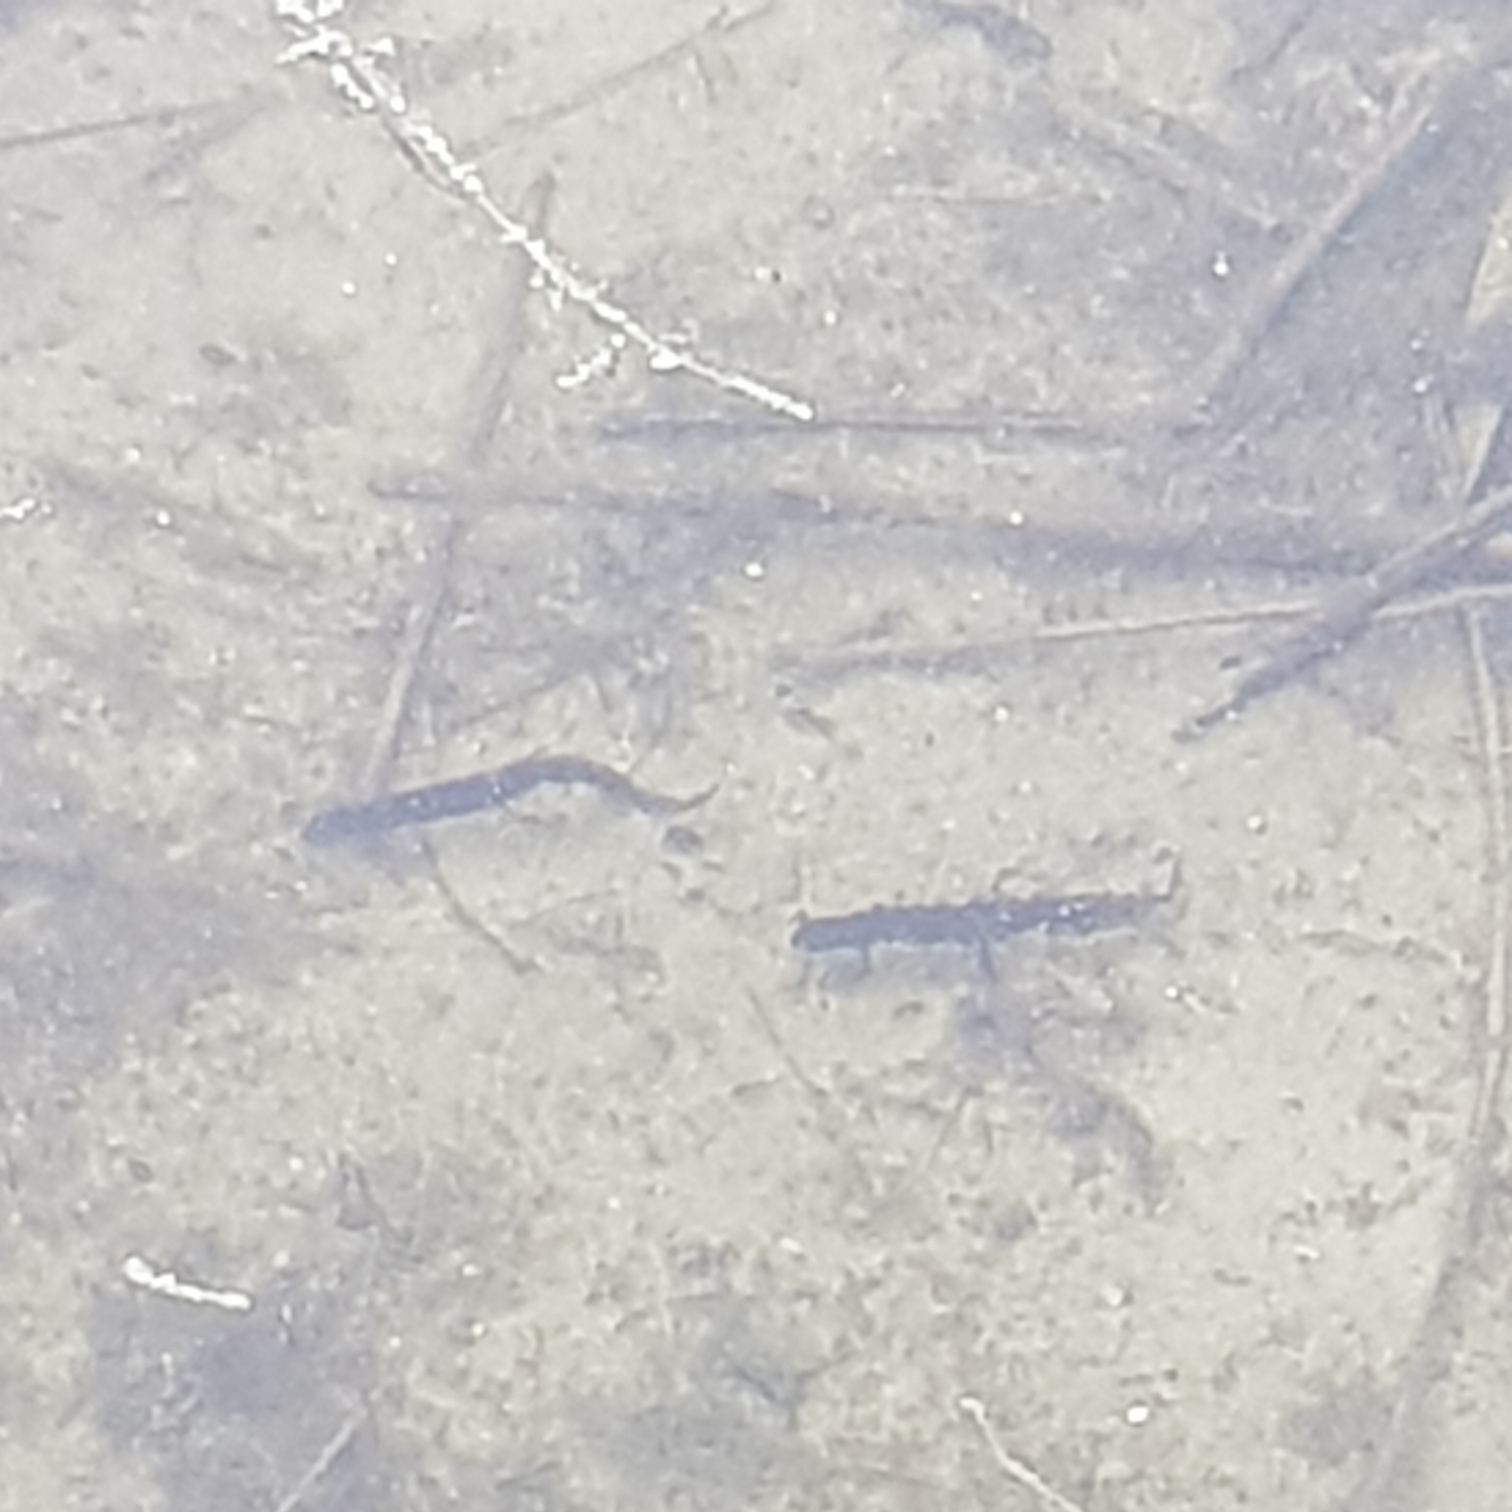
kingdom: Animalia
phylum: Chordata
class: Amphibia
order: Caudata
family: Salamandridae
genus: Lissotriton
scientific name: Lissotriton vulgaris
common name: Lille vandsalamander
